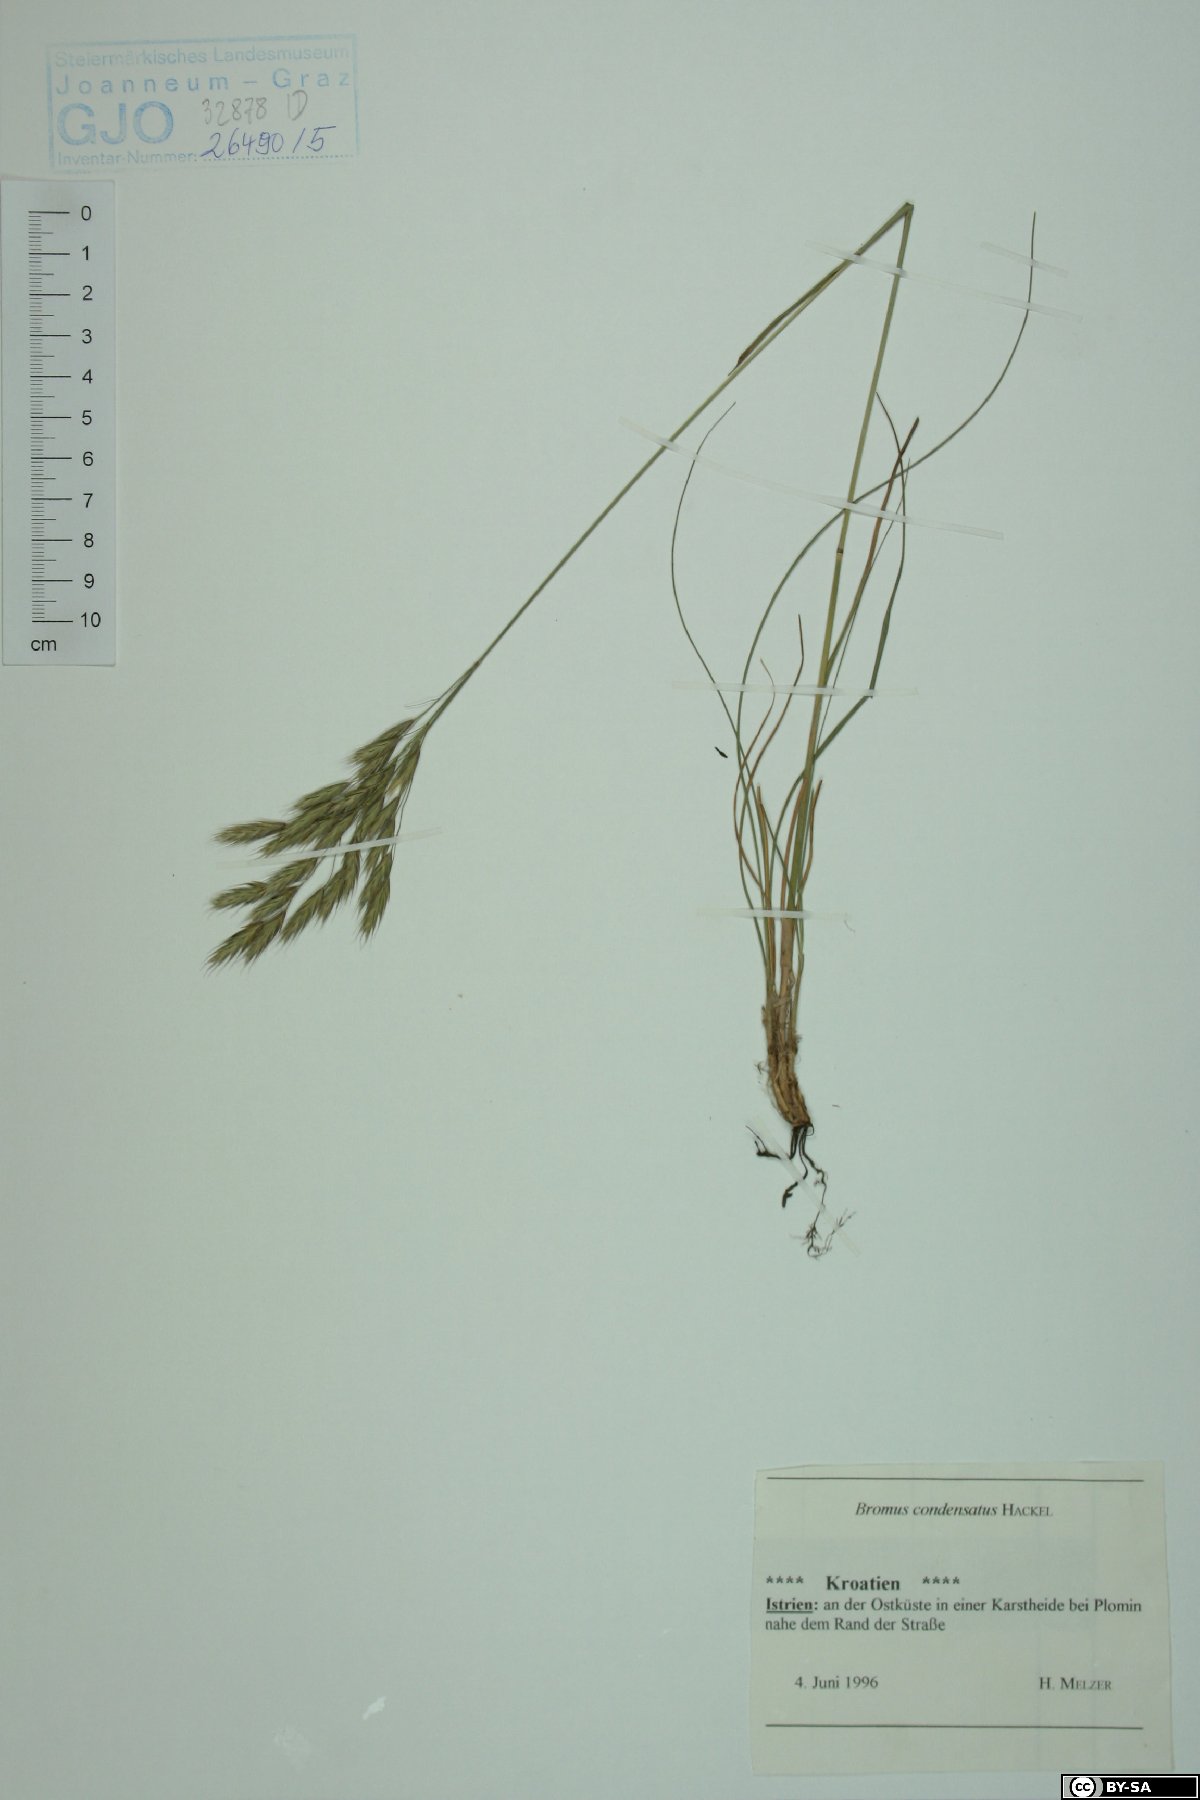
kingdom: Plantae
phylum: Tracheophyta
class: Liliopsida
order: Poales
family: Poaceae
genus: Bromus
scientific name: Bromus condensatus
